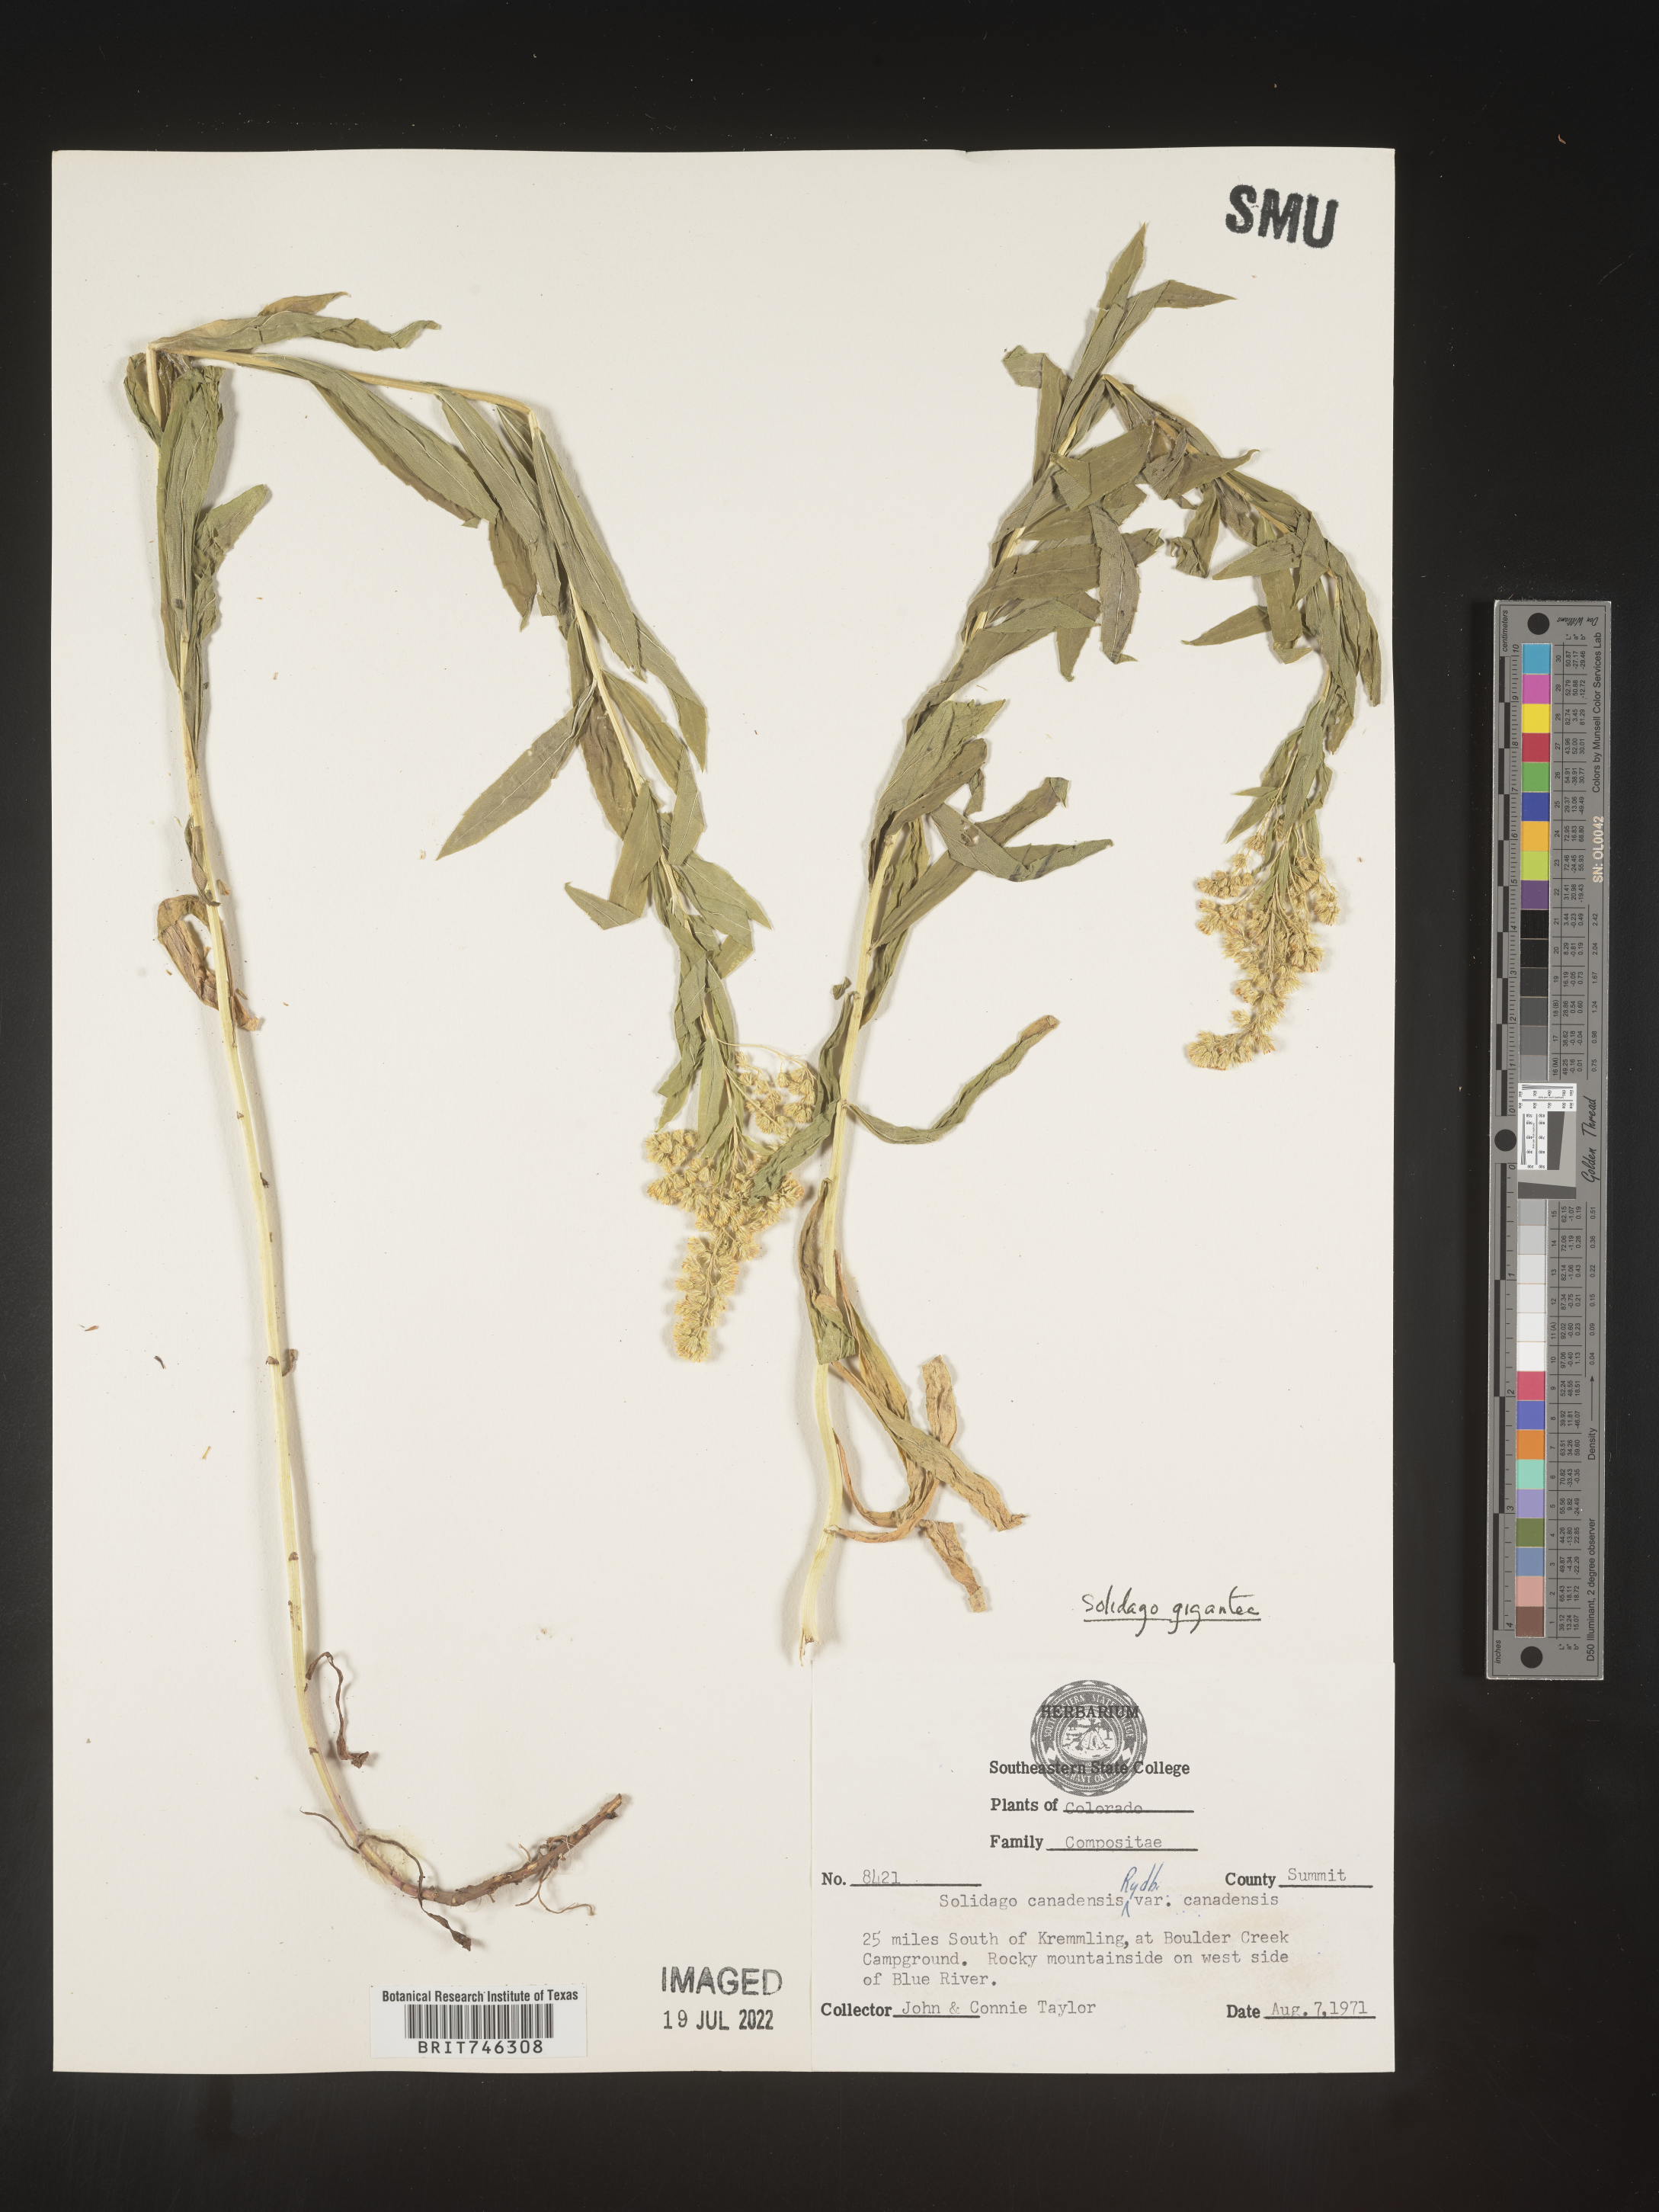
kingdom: Plantae
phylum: Tracheophyta
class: Magnoliopsida
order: Asterales
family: Asteraceae
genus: Solidago
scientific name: Solidago gigantea
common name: Giant goldenrod
